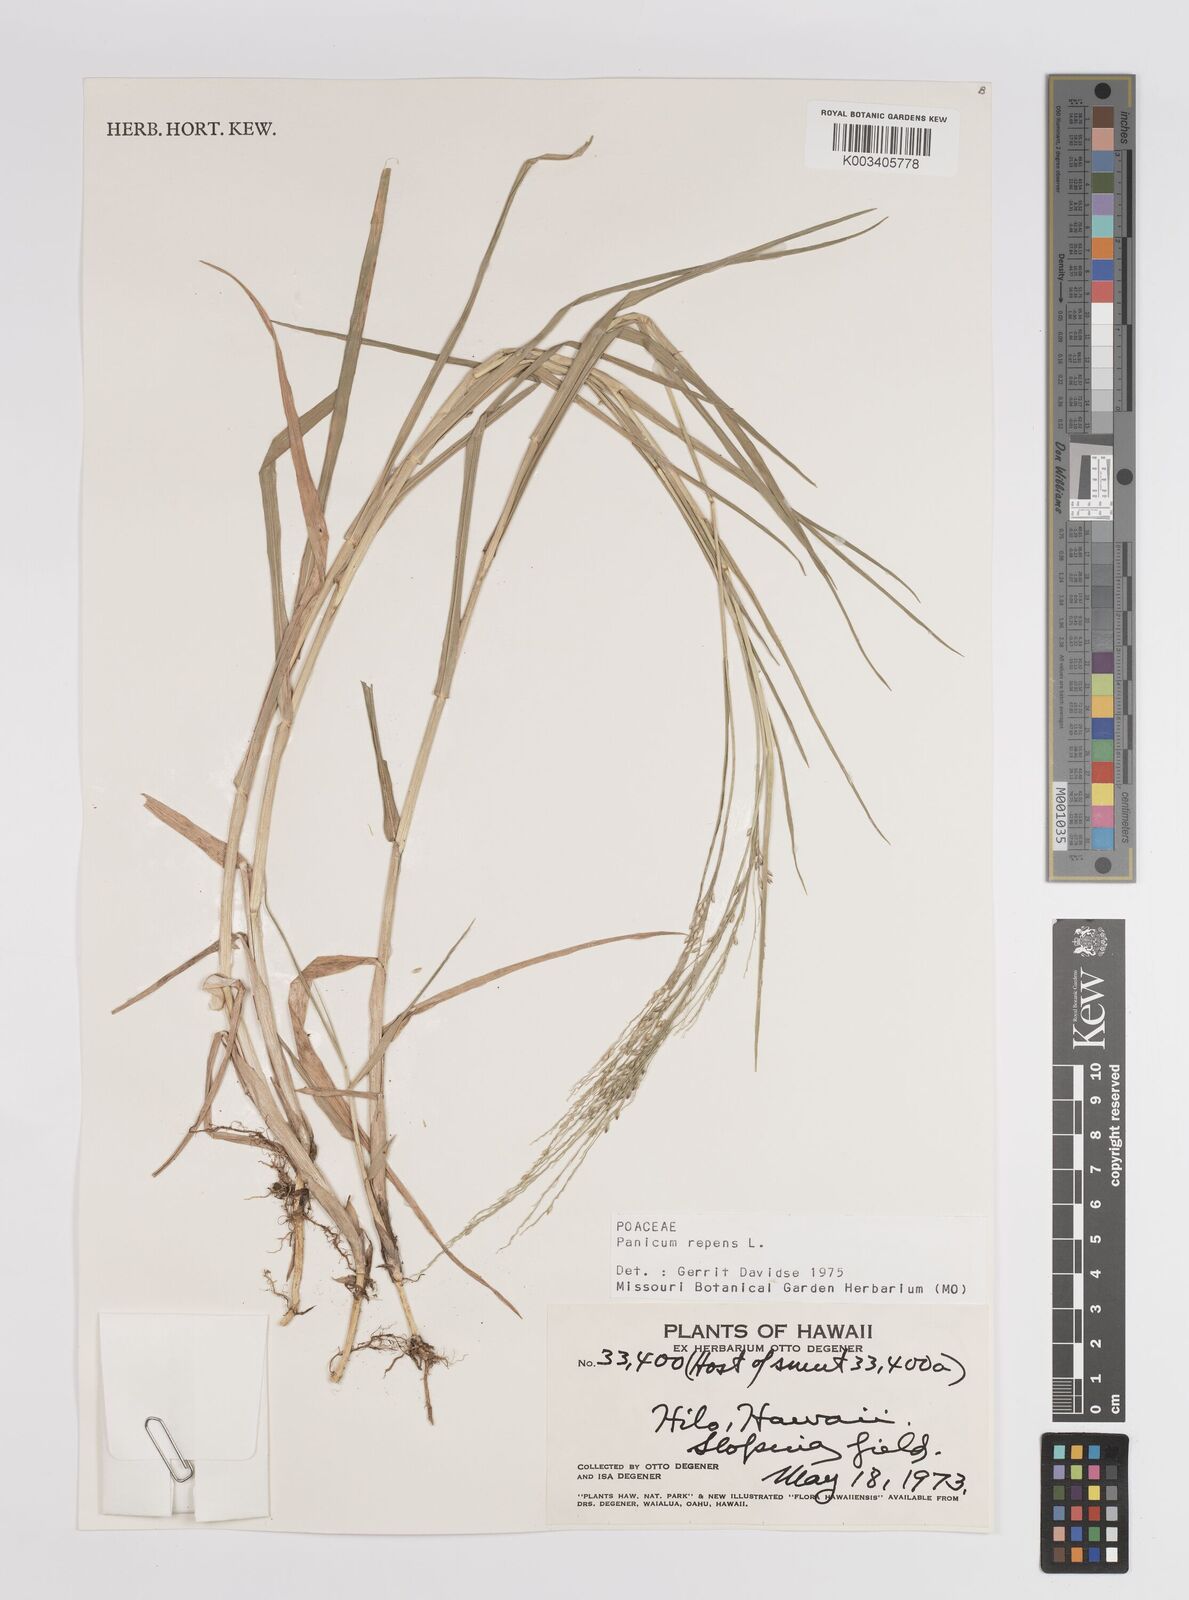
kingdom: Plantae
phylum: Tracheophyta
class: Liliopsida
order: Poales
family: Poaceae
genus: Panicum
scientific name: Panicum repens
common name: Torpedo grass
